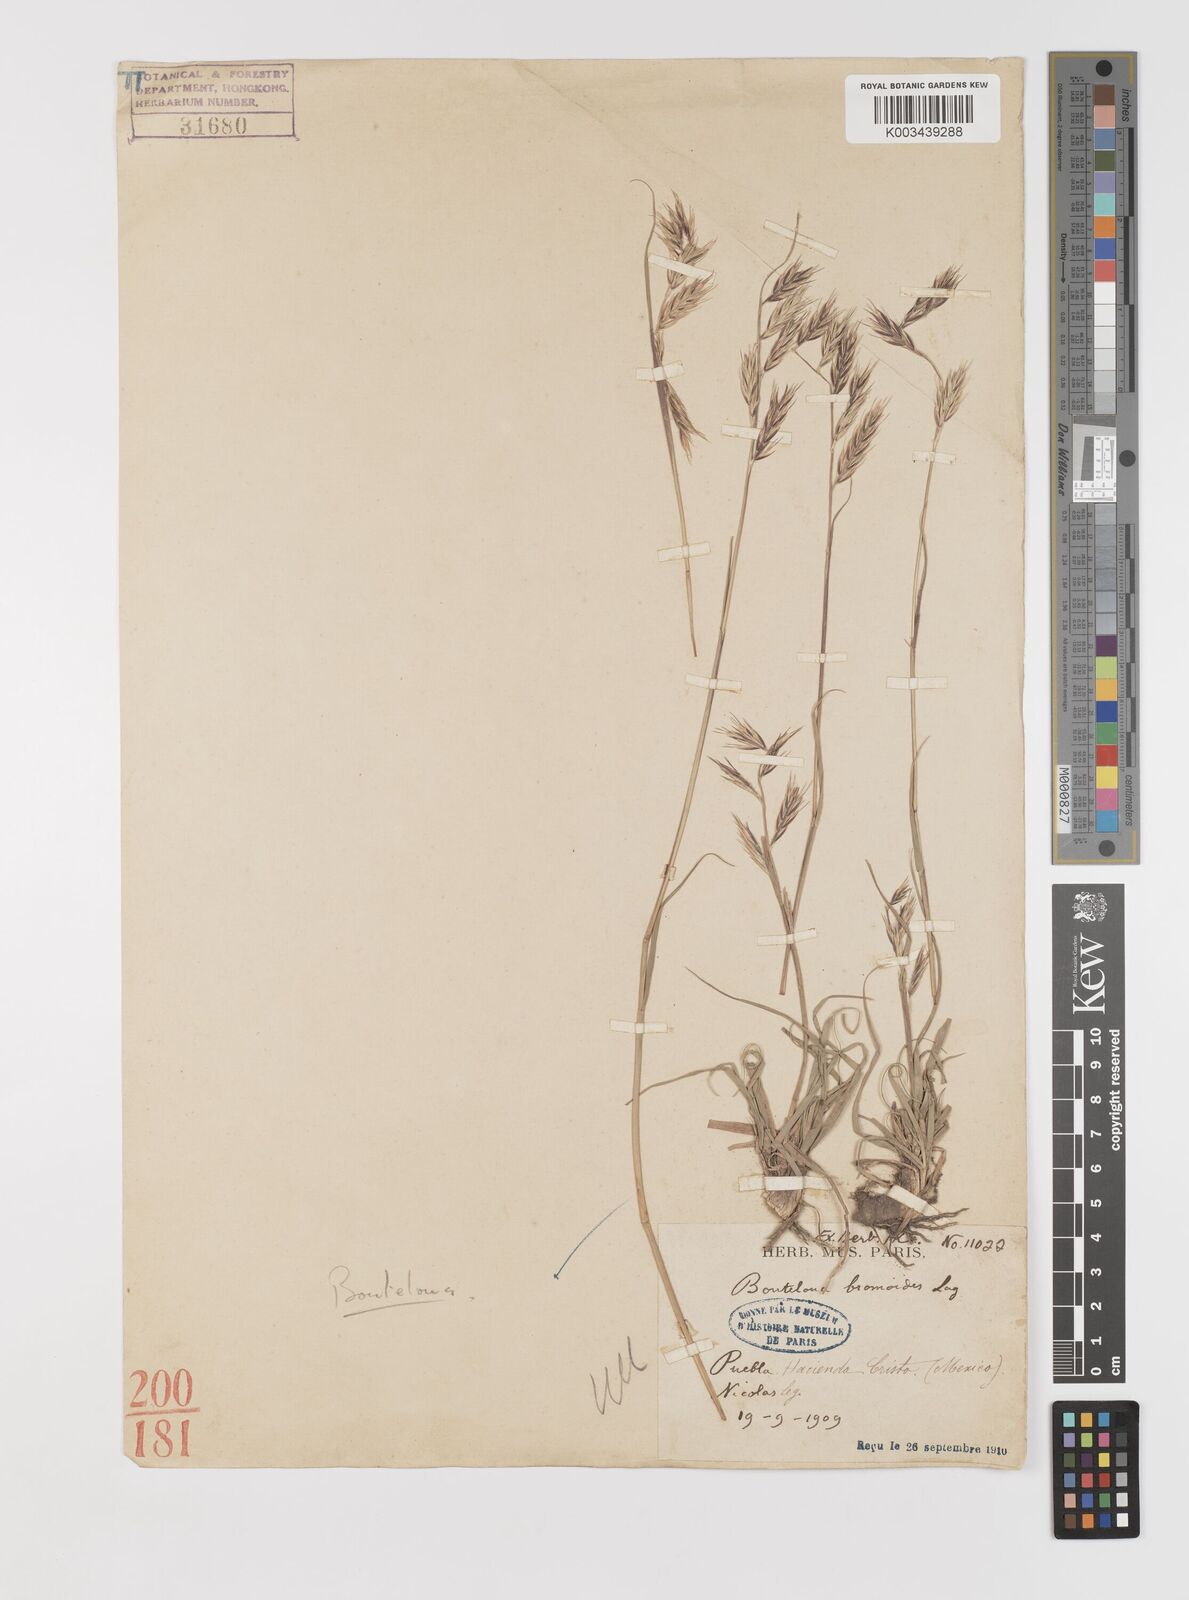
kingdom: Plantae
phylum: Tracheophyta
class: Liliopsida
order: Poales
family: Poaceae
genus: Bouteloua
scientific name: Bouteloua repens
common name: Slender grama
